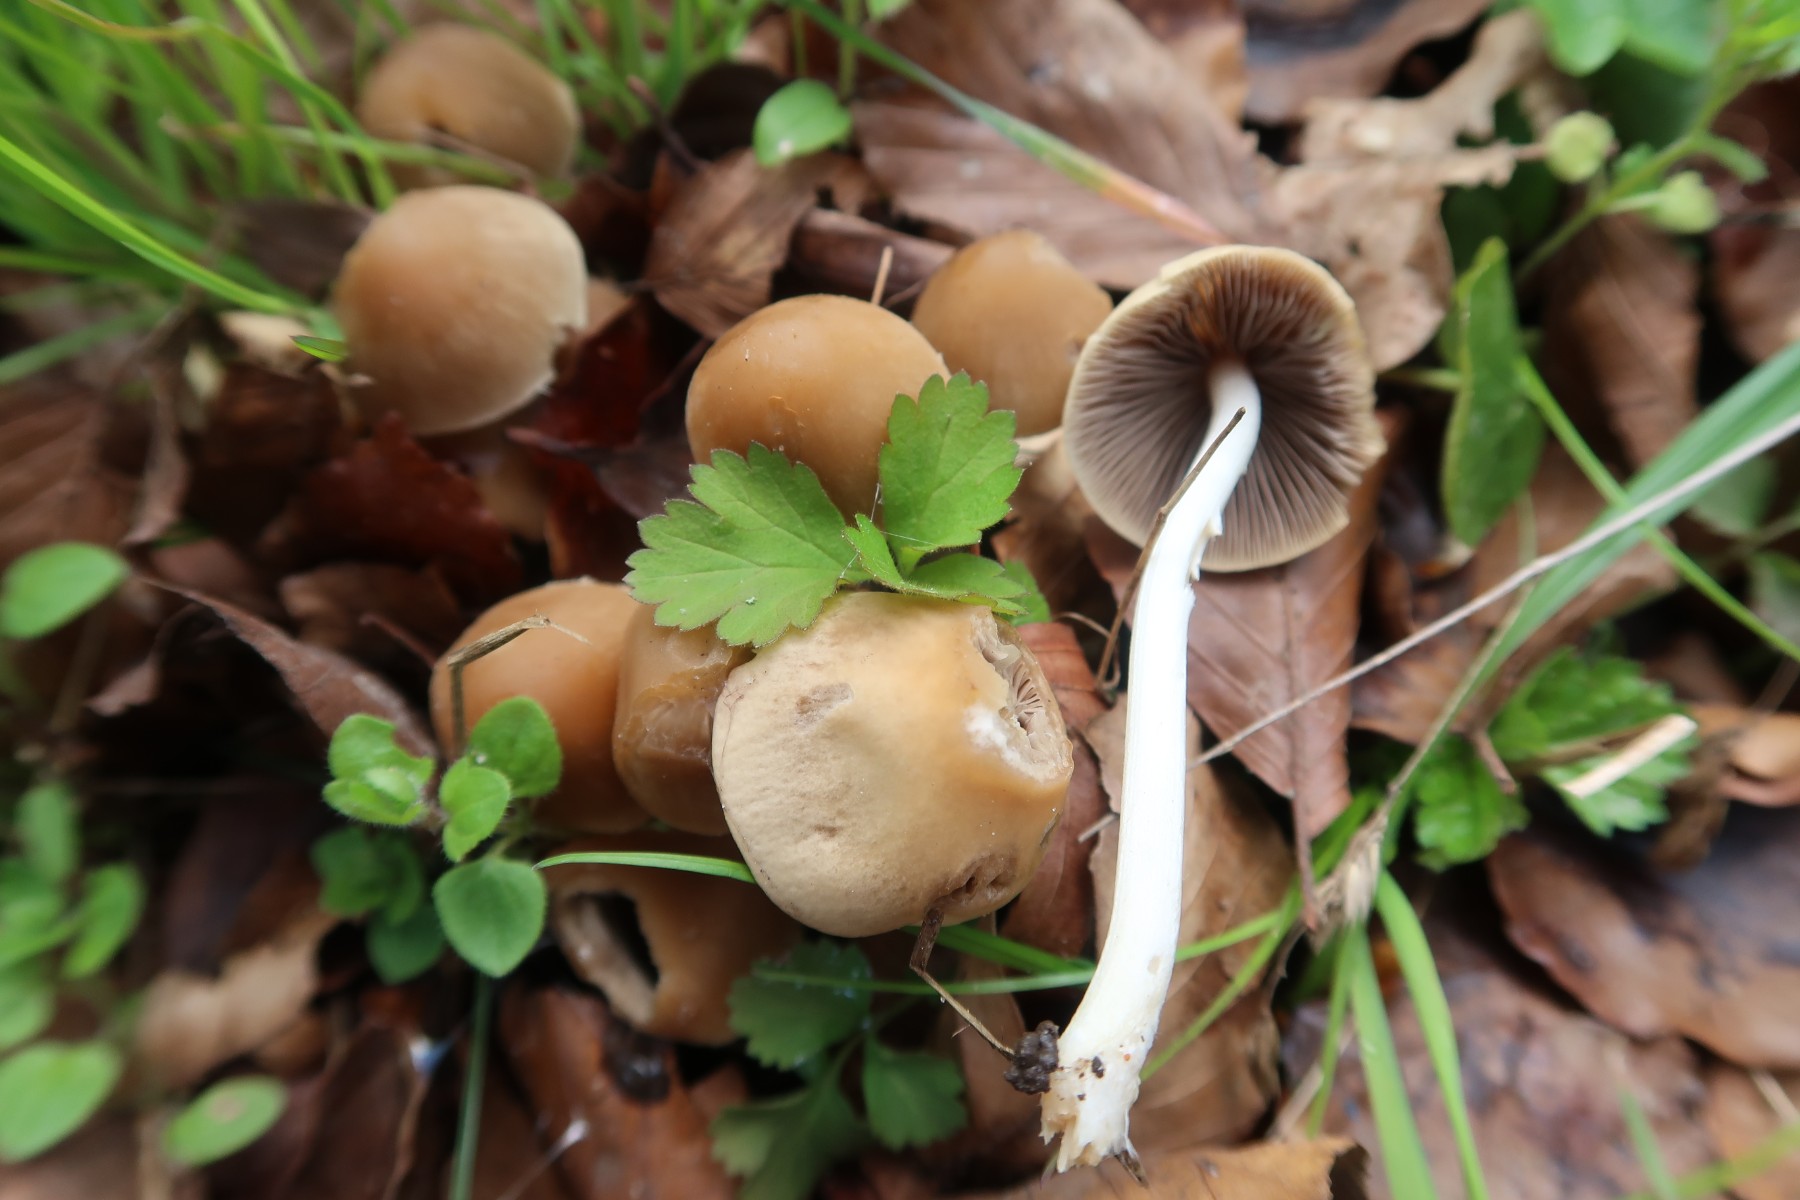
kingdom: Fungi
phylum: Basidiomycota
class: Agaricomycetes
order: Agaricales
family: Psathyrellaceae
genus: Psathyrella
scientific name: Psathyrella spadiceogrisea
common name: gråbrun mørkhat
